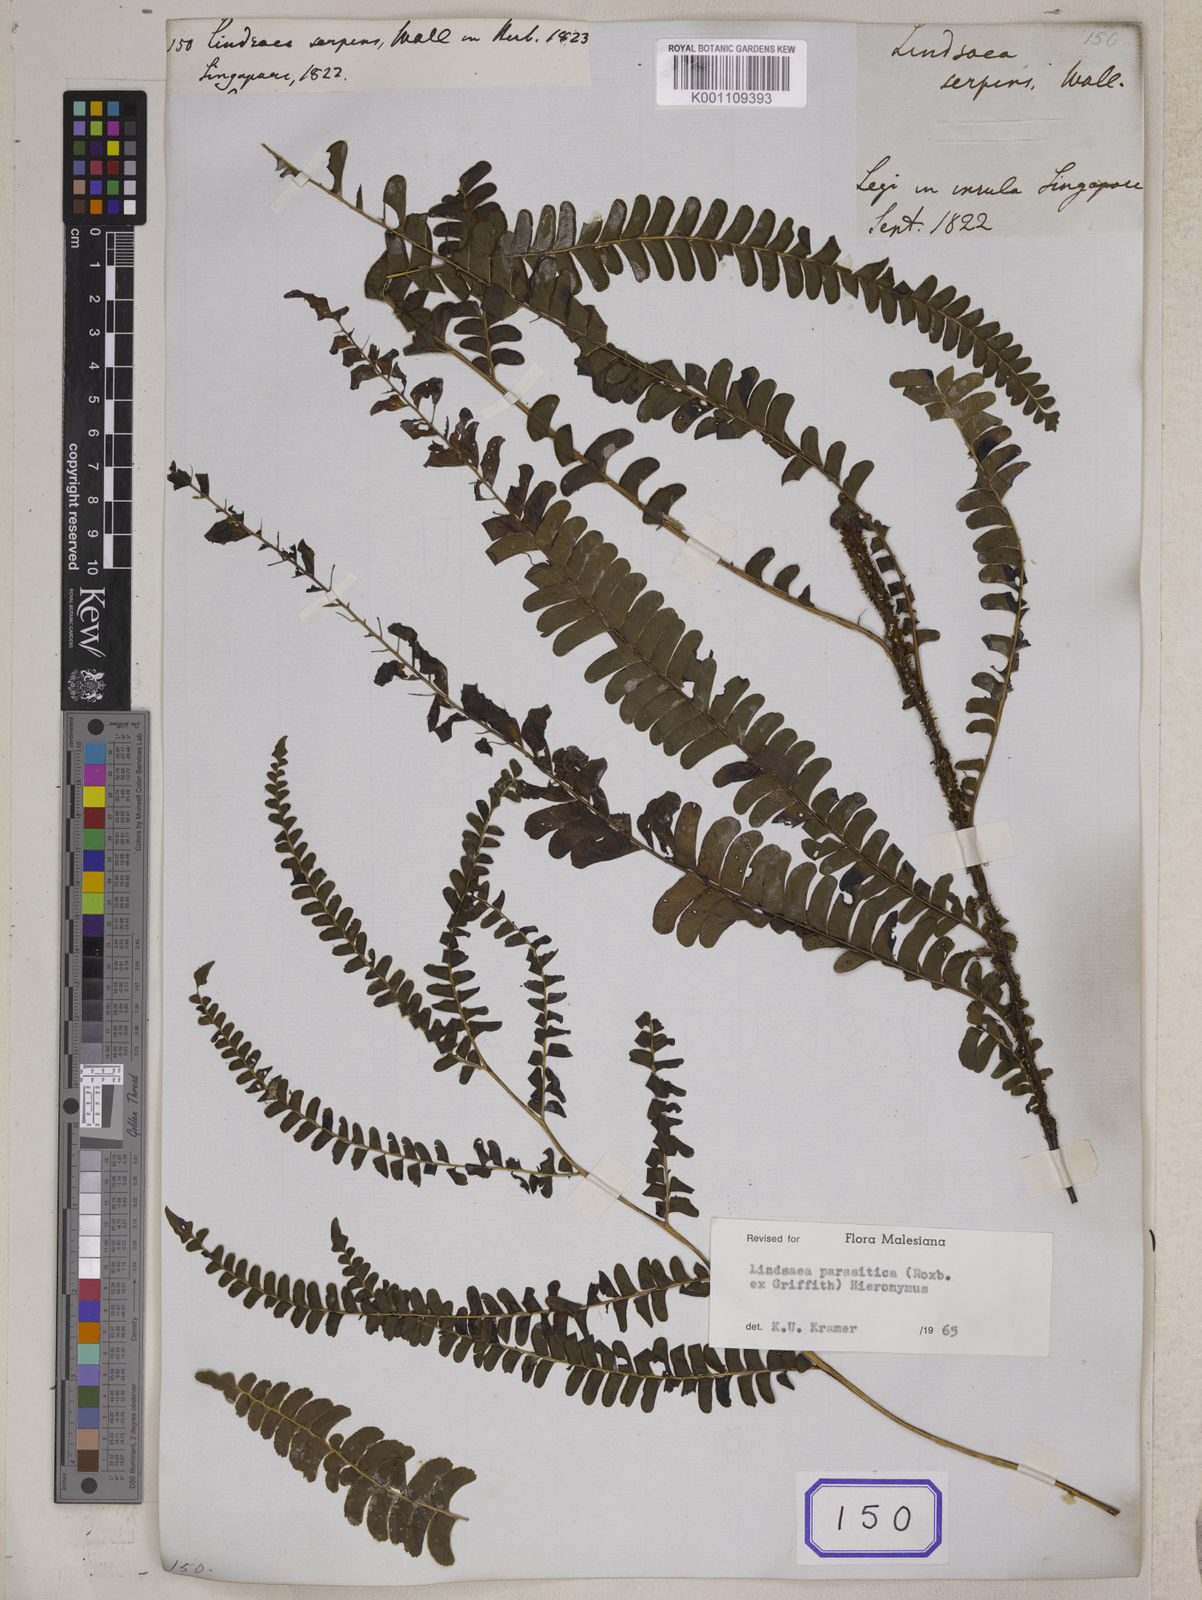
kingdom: Plantae
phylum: Tracheophyta
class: Polypodiopsida
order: Polypodiales
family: Lindsaeaceae
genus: Lindsaea
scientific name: Lindsaea cultrata
